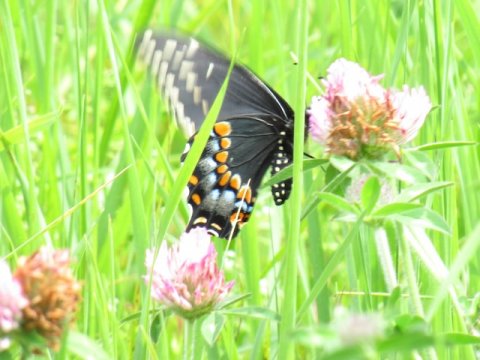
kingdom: Animalia
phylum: Arthropoda
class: Insecta
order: Lepidoptera
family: Papilionidae
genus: Papilio
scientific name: Papilio polyxenes
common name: Black Swallowtail
